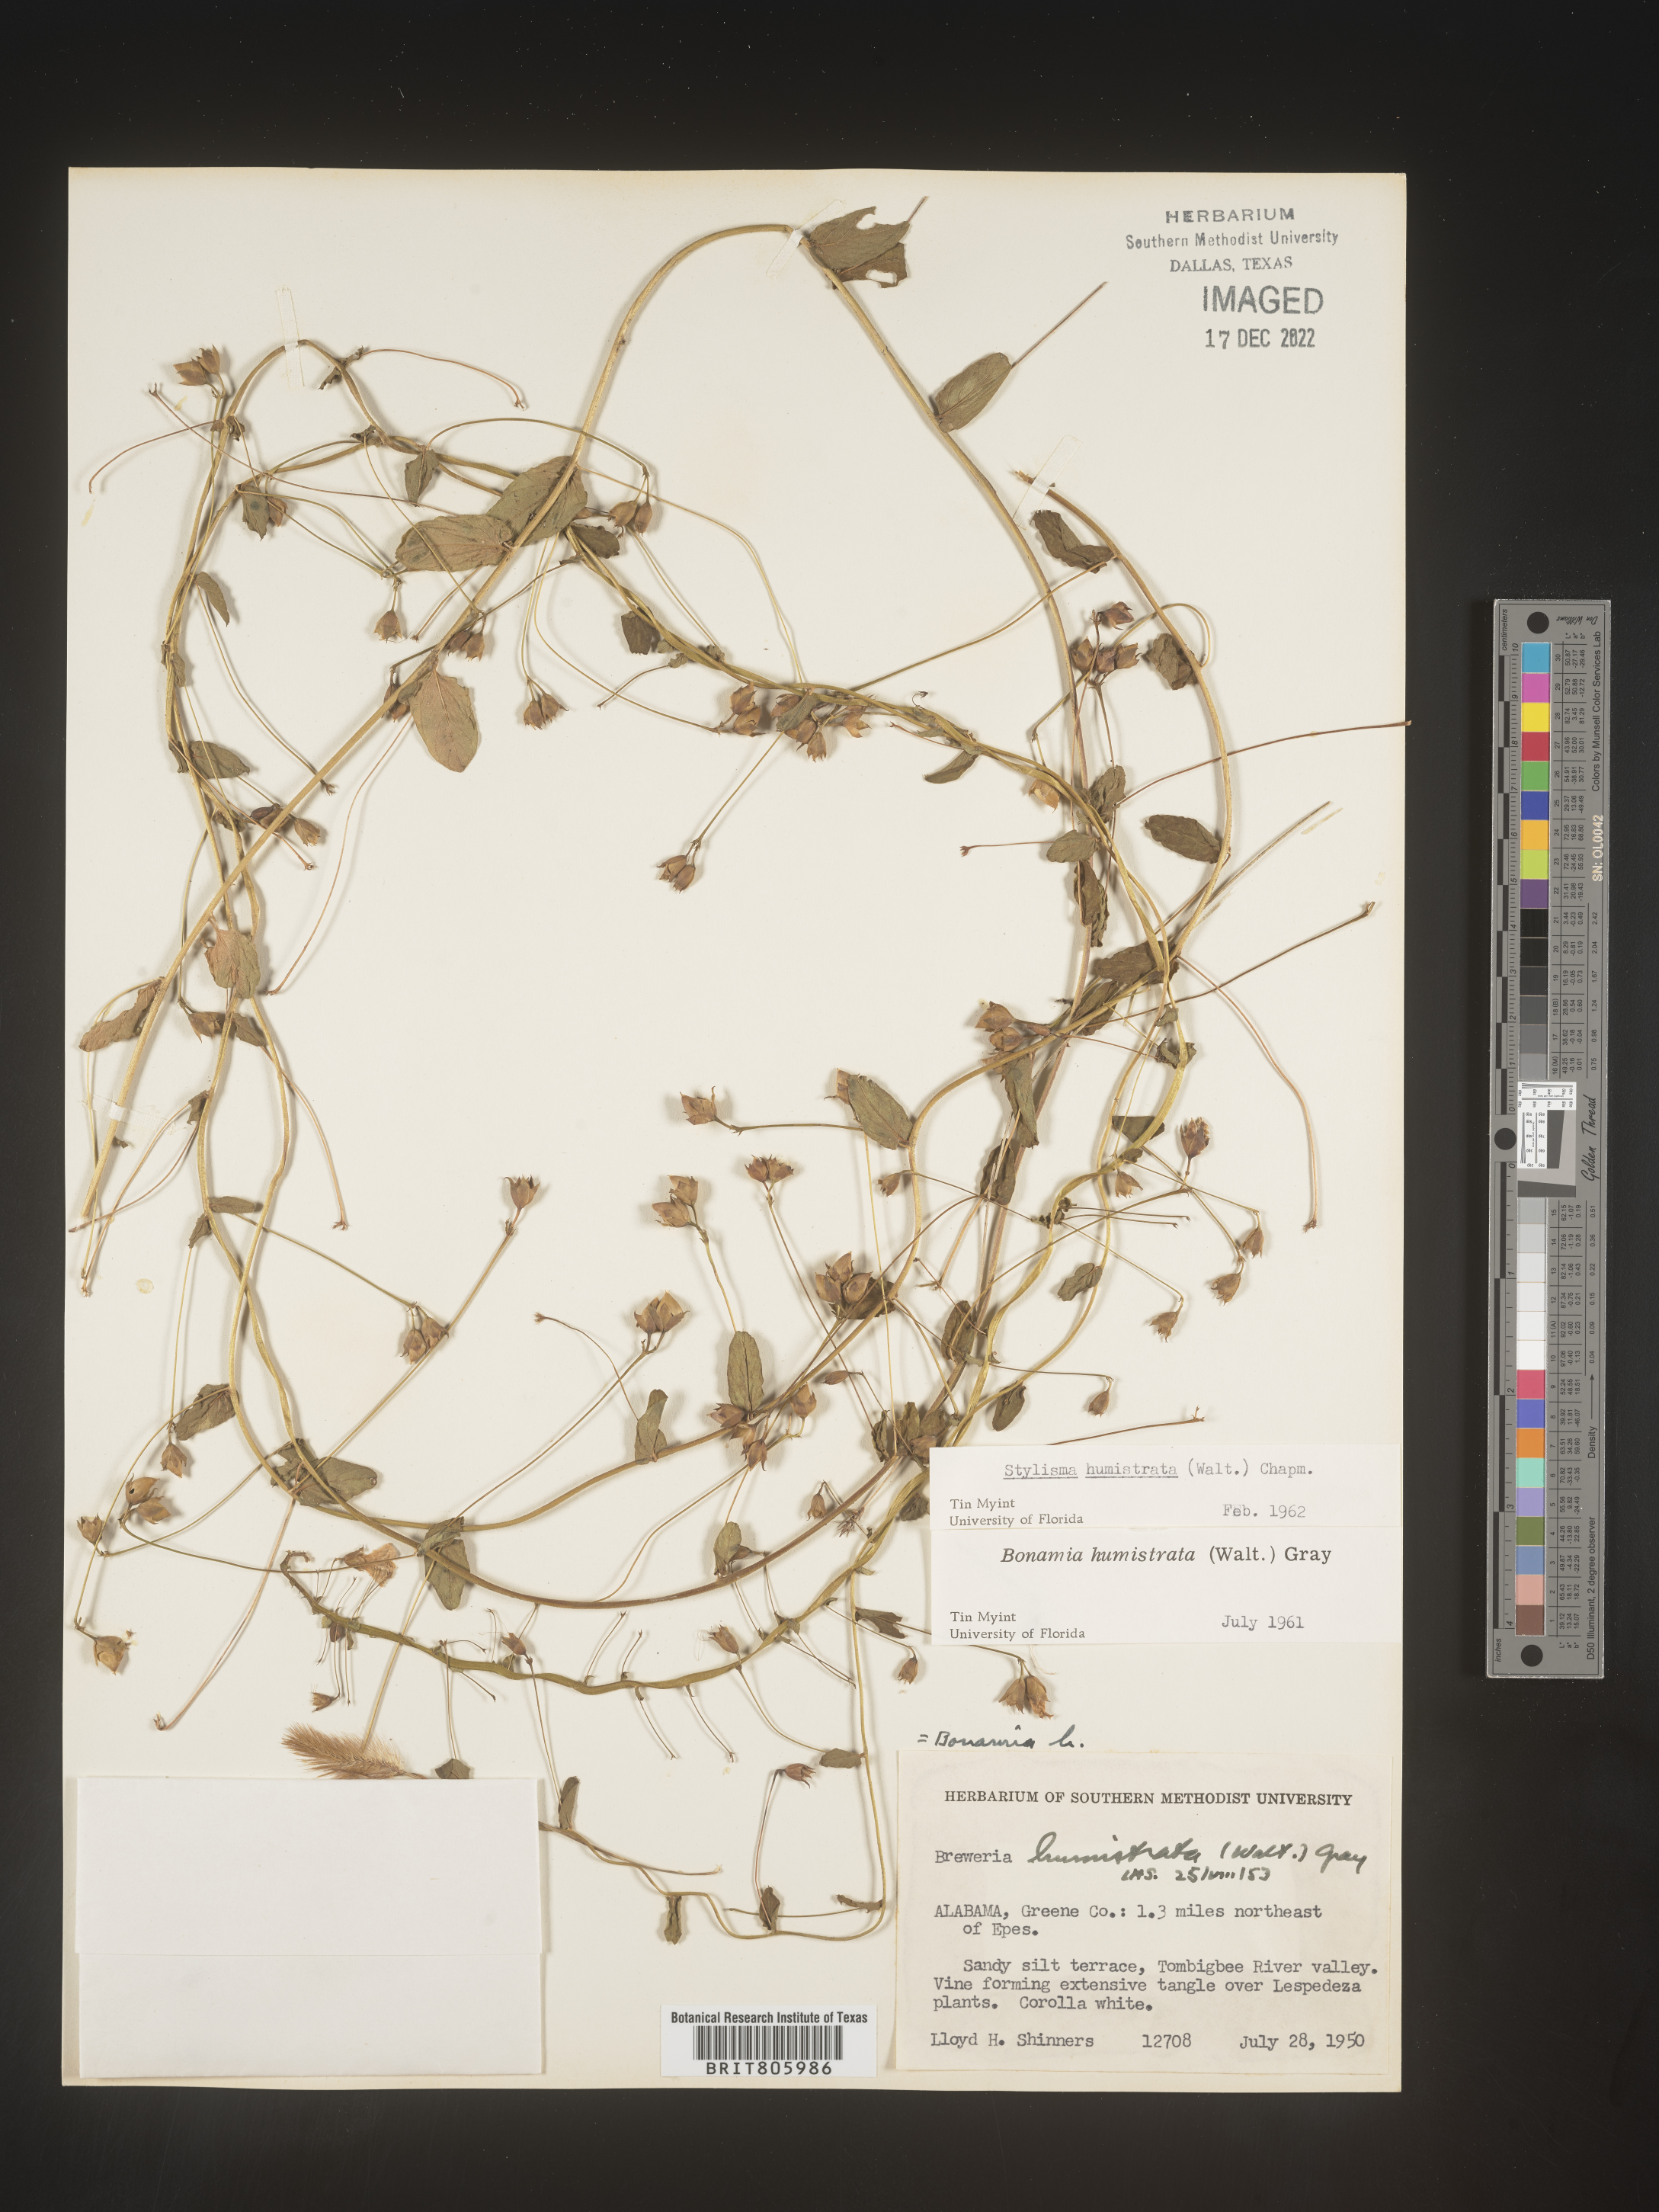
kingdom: Plantae
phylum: Tracheophyta
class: Magnoliopsida
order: Solanales
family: Convolvulaceae
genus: Stylisma
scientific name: Stylisma humistrata
